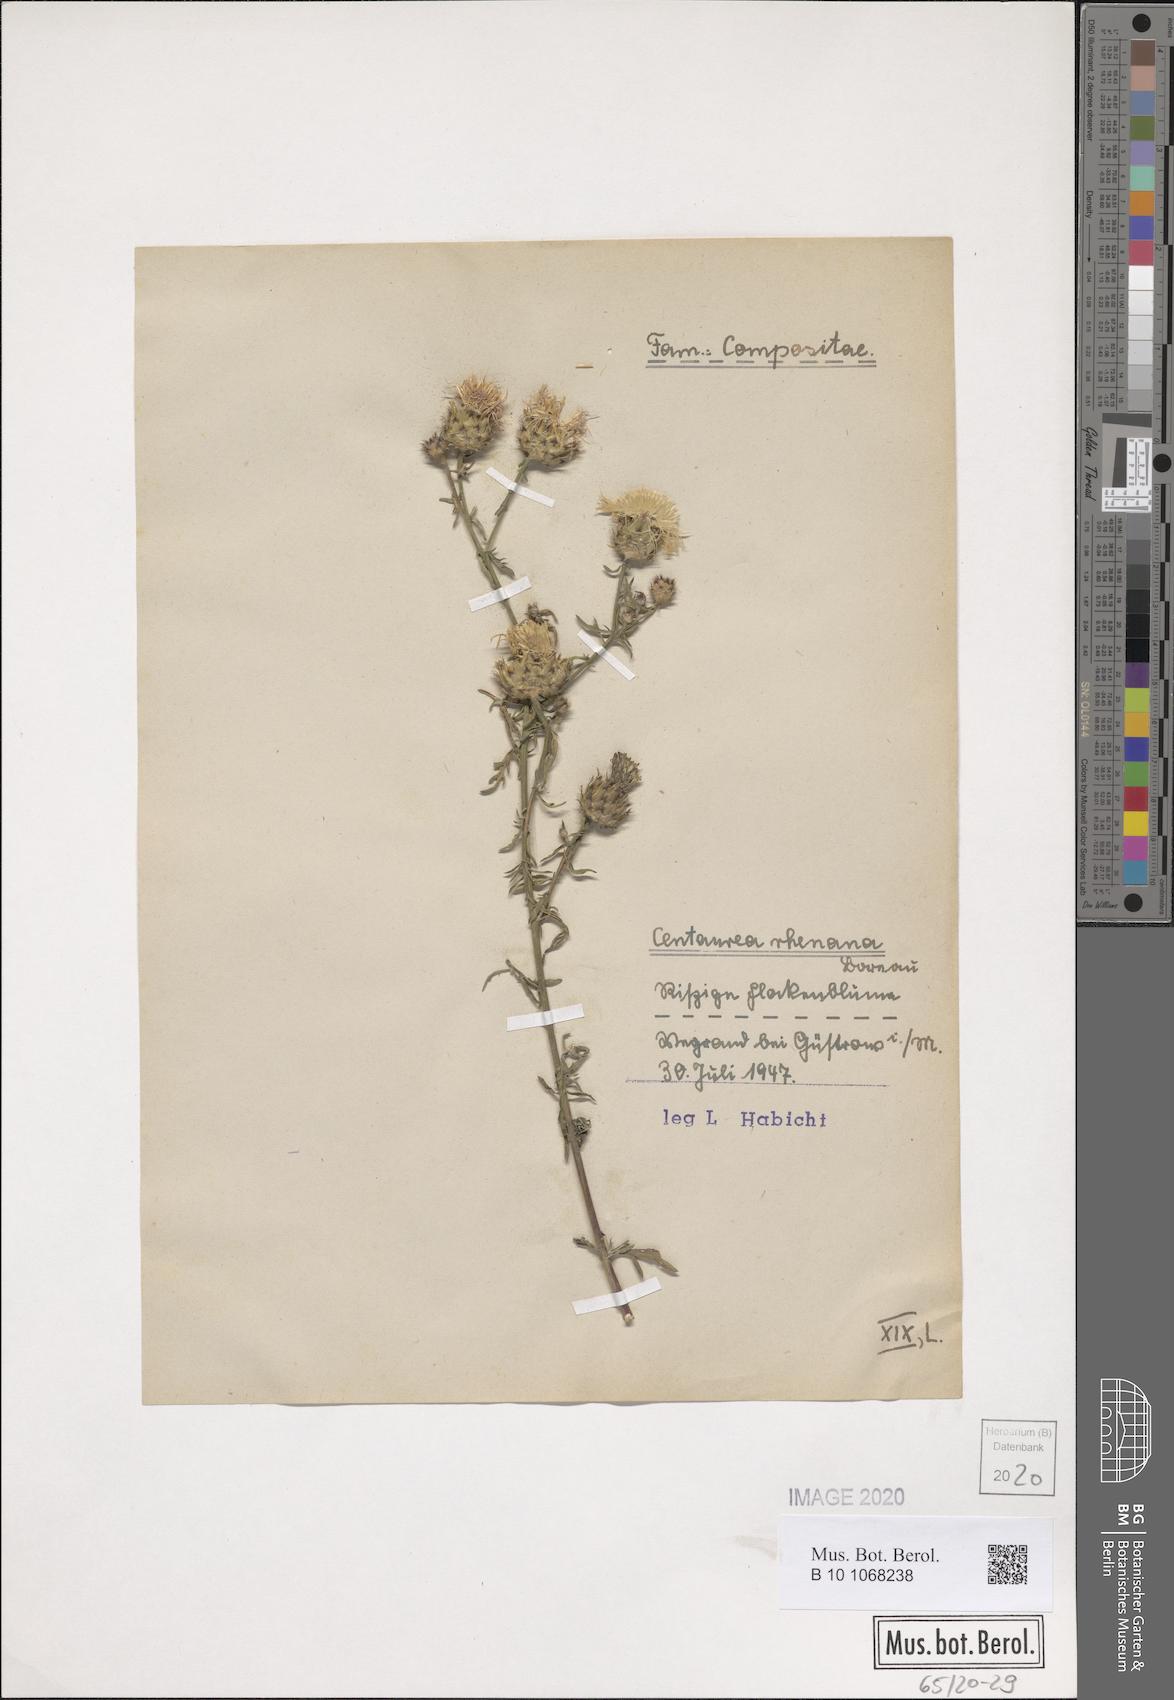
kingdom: Plantae
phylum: Tracheophyta
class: Magnoliopsida
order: Asterales
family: Asteraceae
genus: Centaurea
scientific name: Centaurea stoebe
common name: Spotted knapweed
